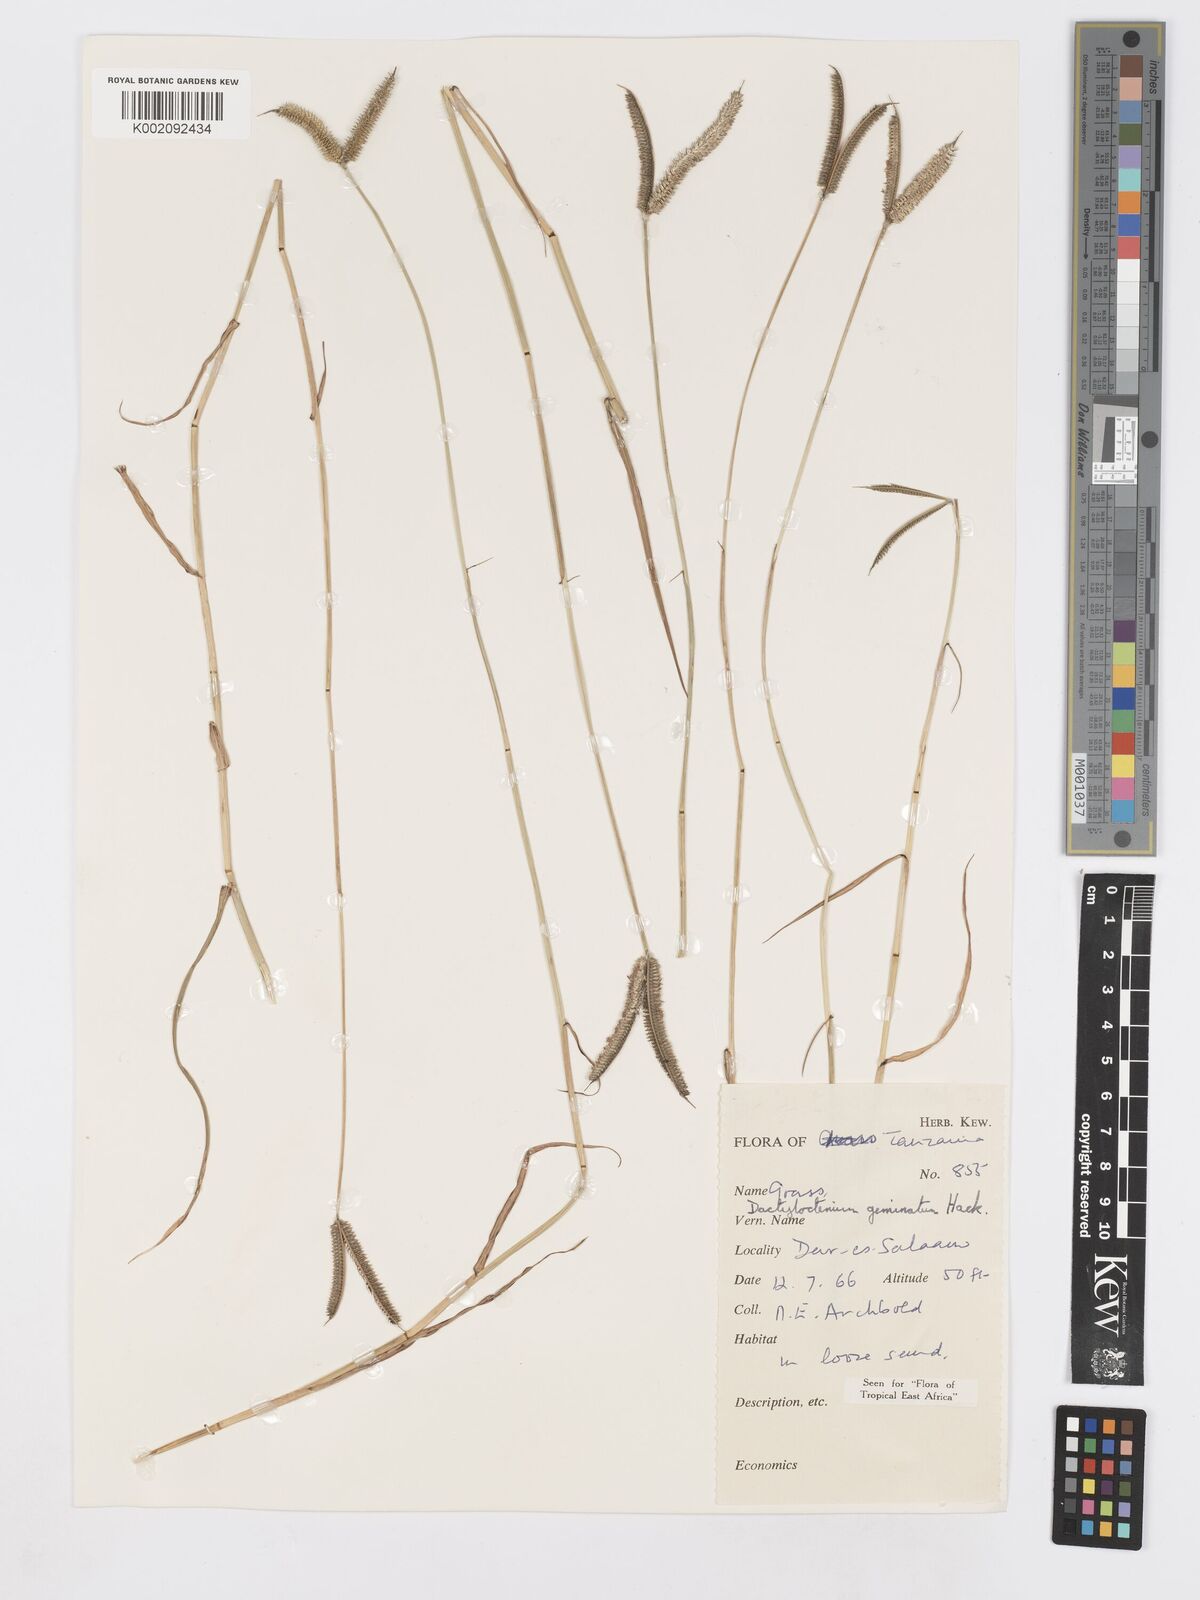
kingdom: Plantae
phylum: Tracheophyta
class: Liliopsida
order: Poales
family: Poaceae
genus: Dactyloctenium
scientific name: Dactyloctenium geminatum
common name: Crowsfoot grass
